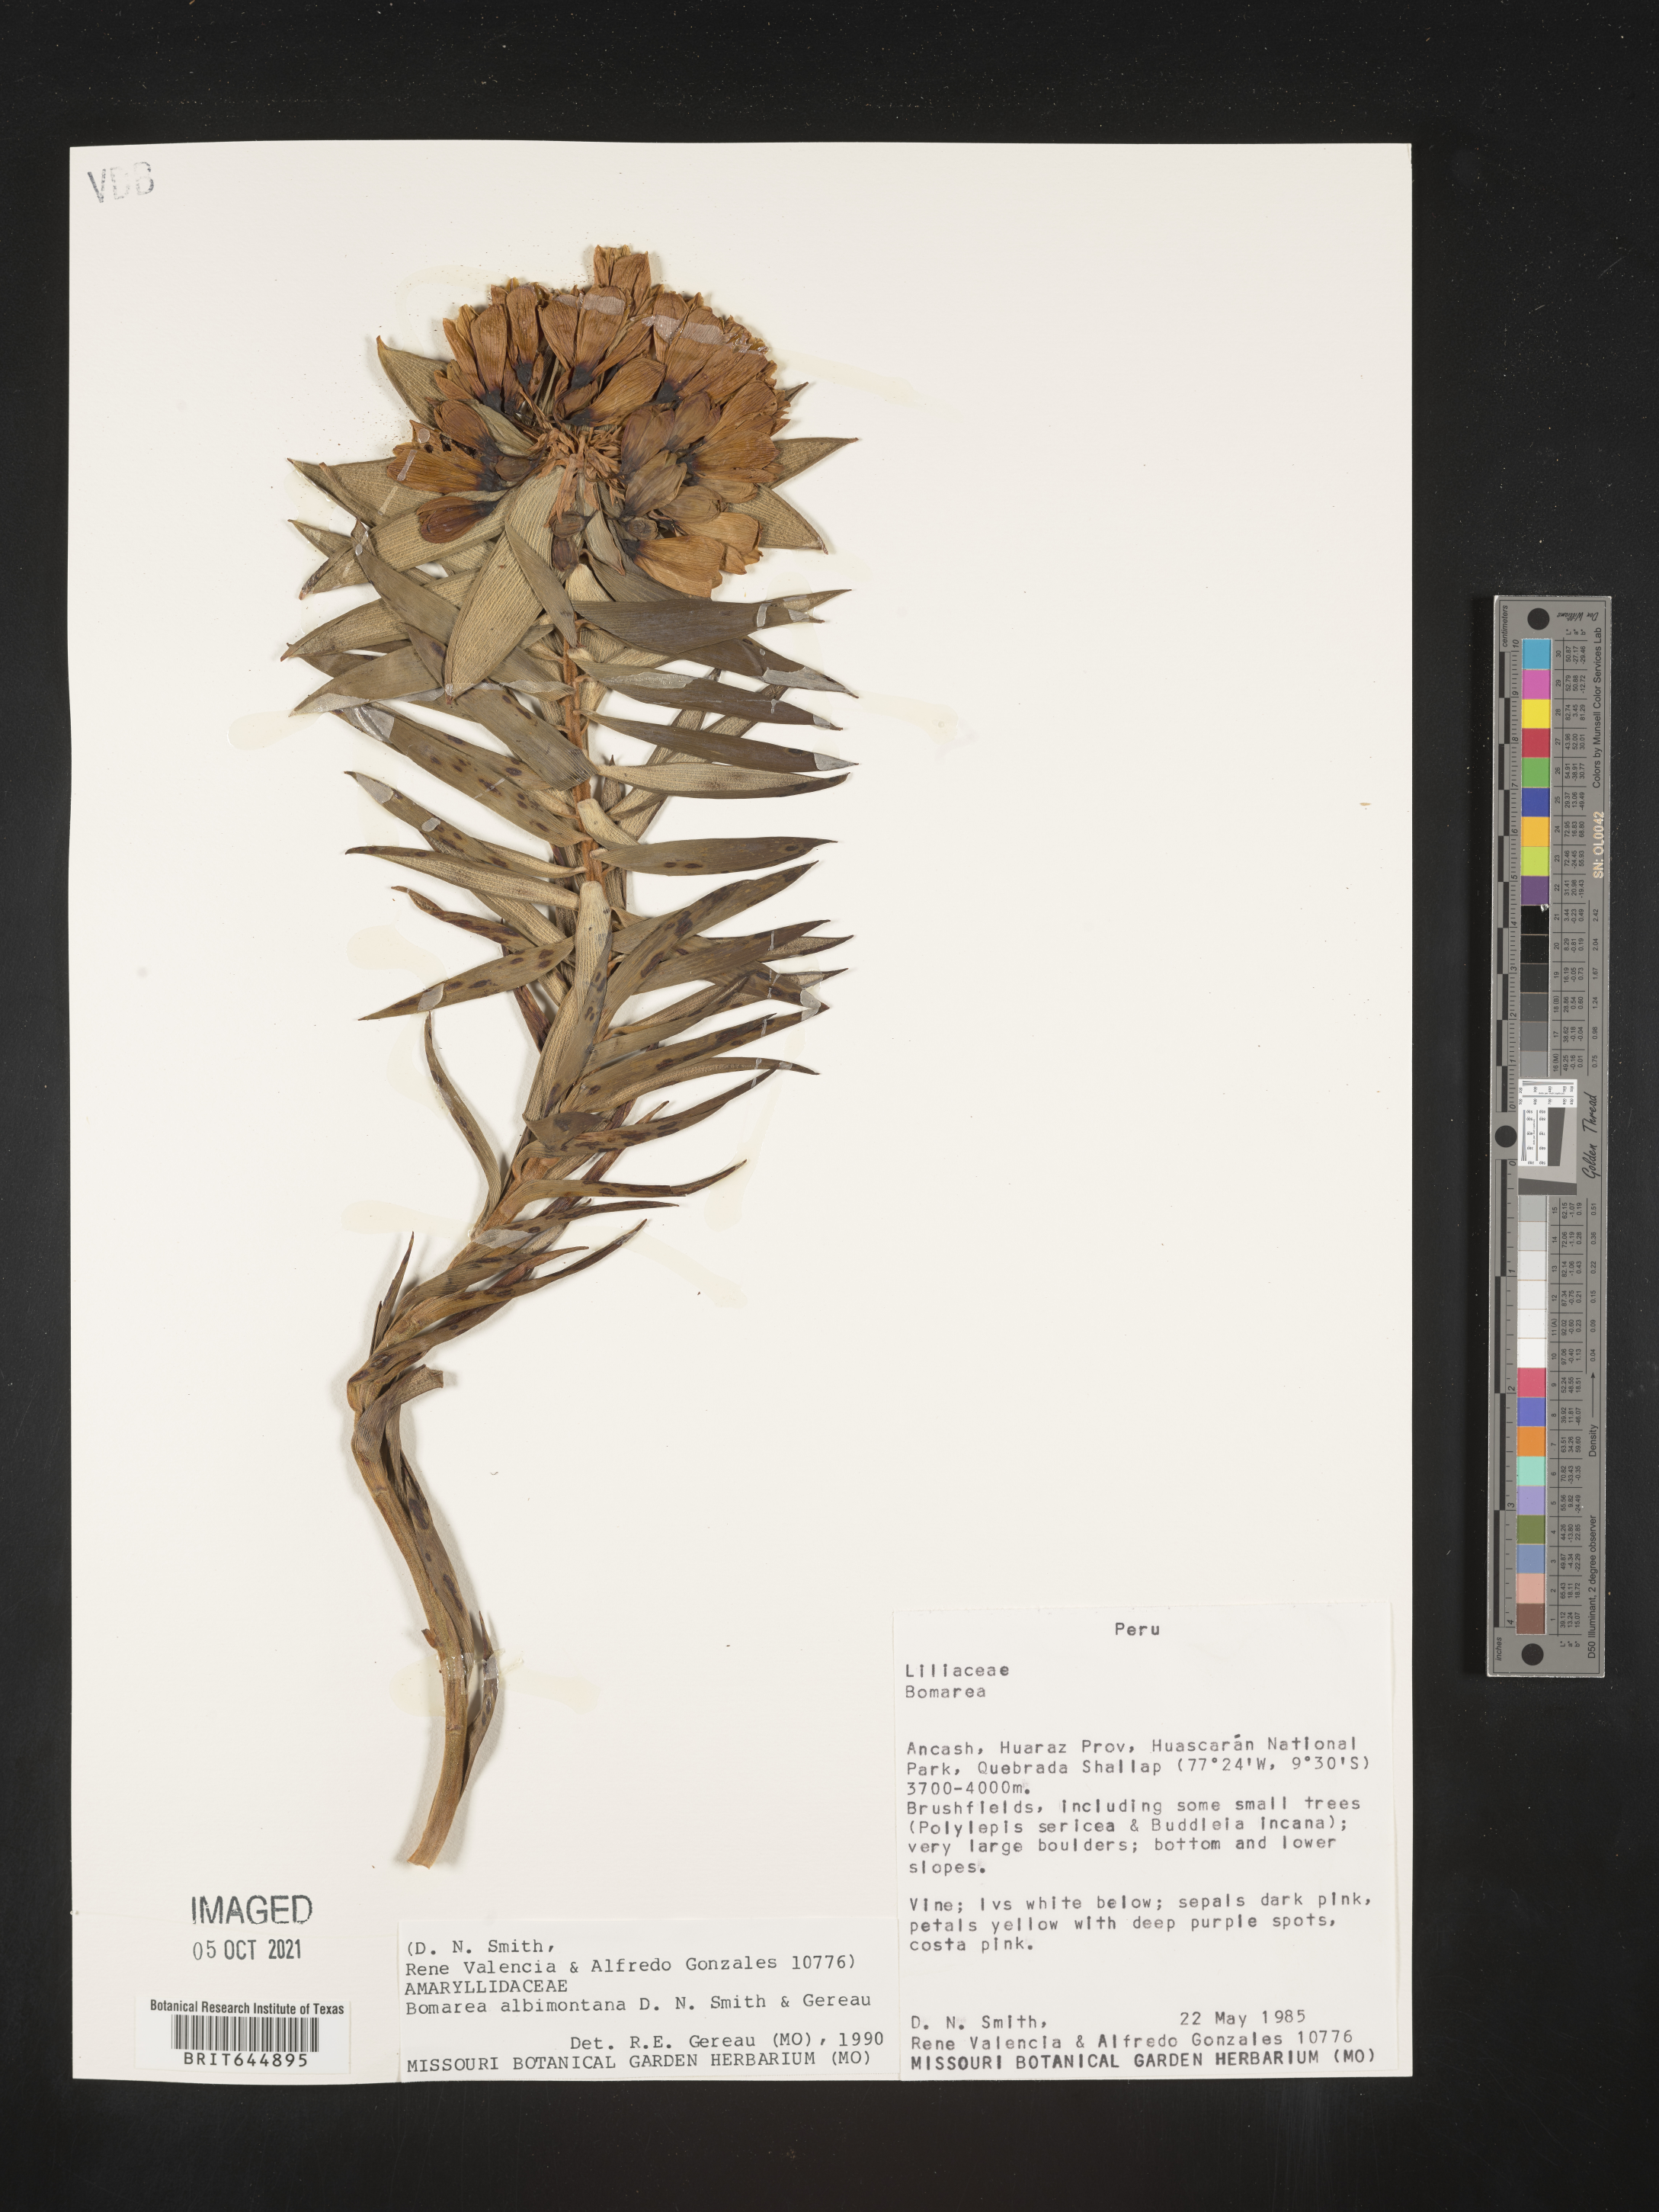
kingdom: Plantae
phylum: Tracheophyta
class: Liliopsida
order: Liliales
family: Alstroemeriaceae
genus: Bomarea
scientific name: Bomarea albimontana
